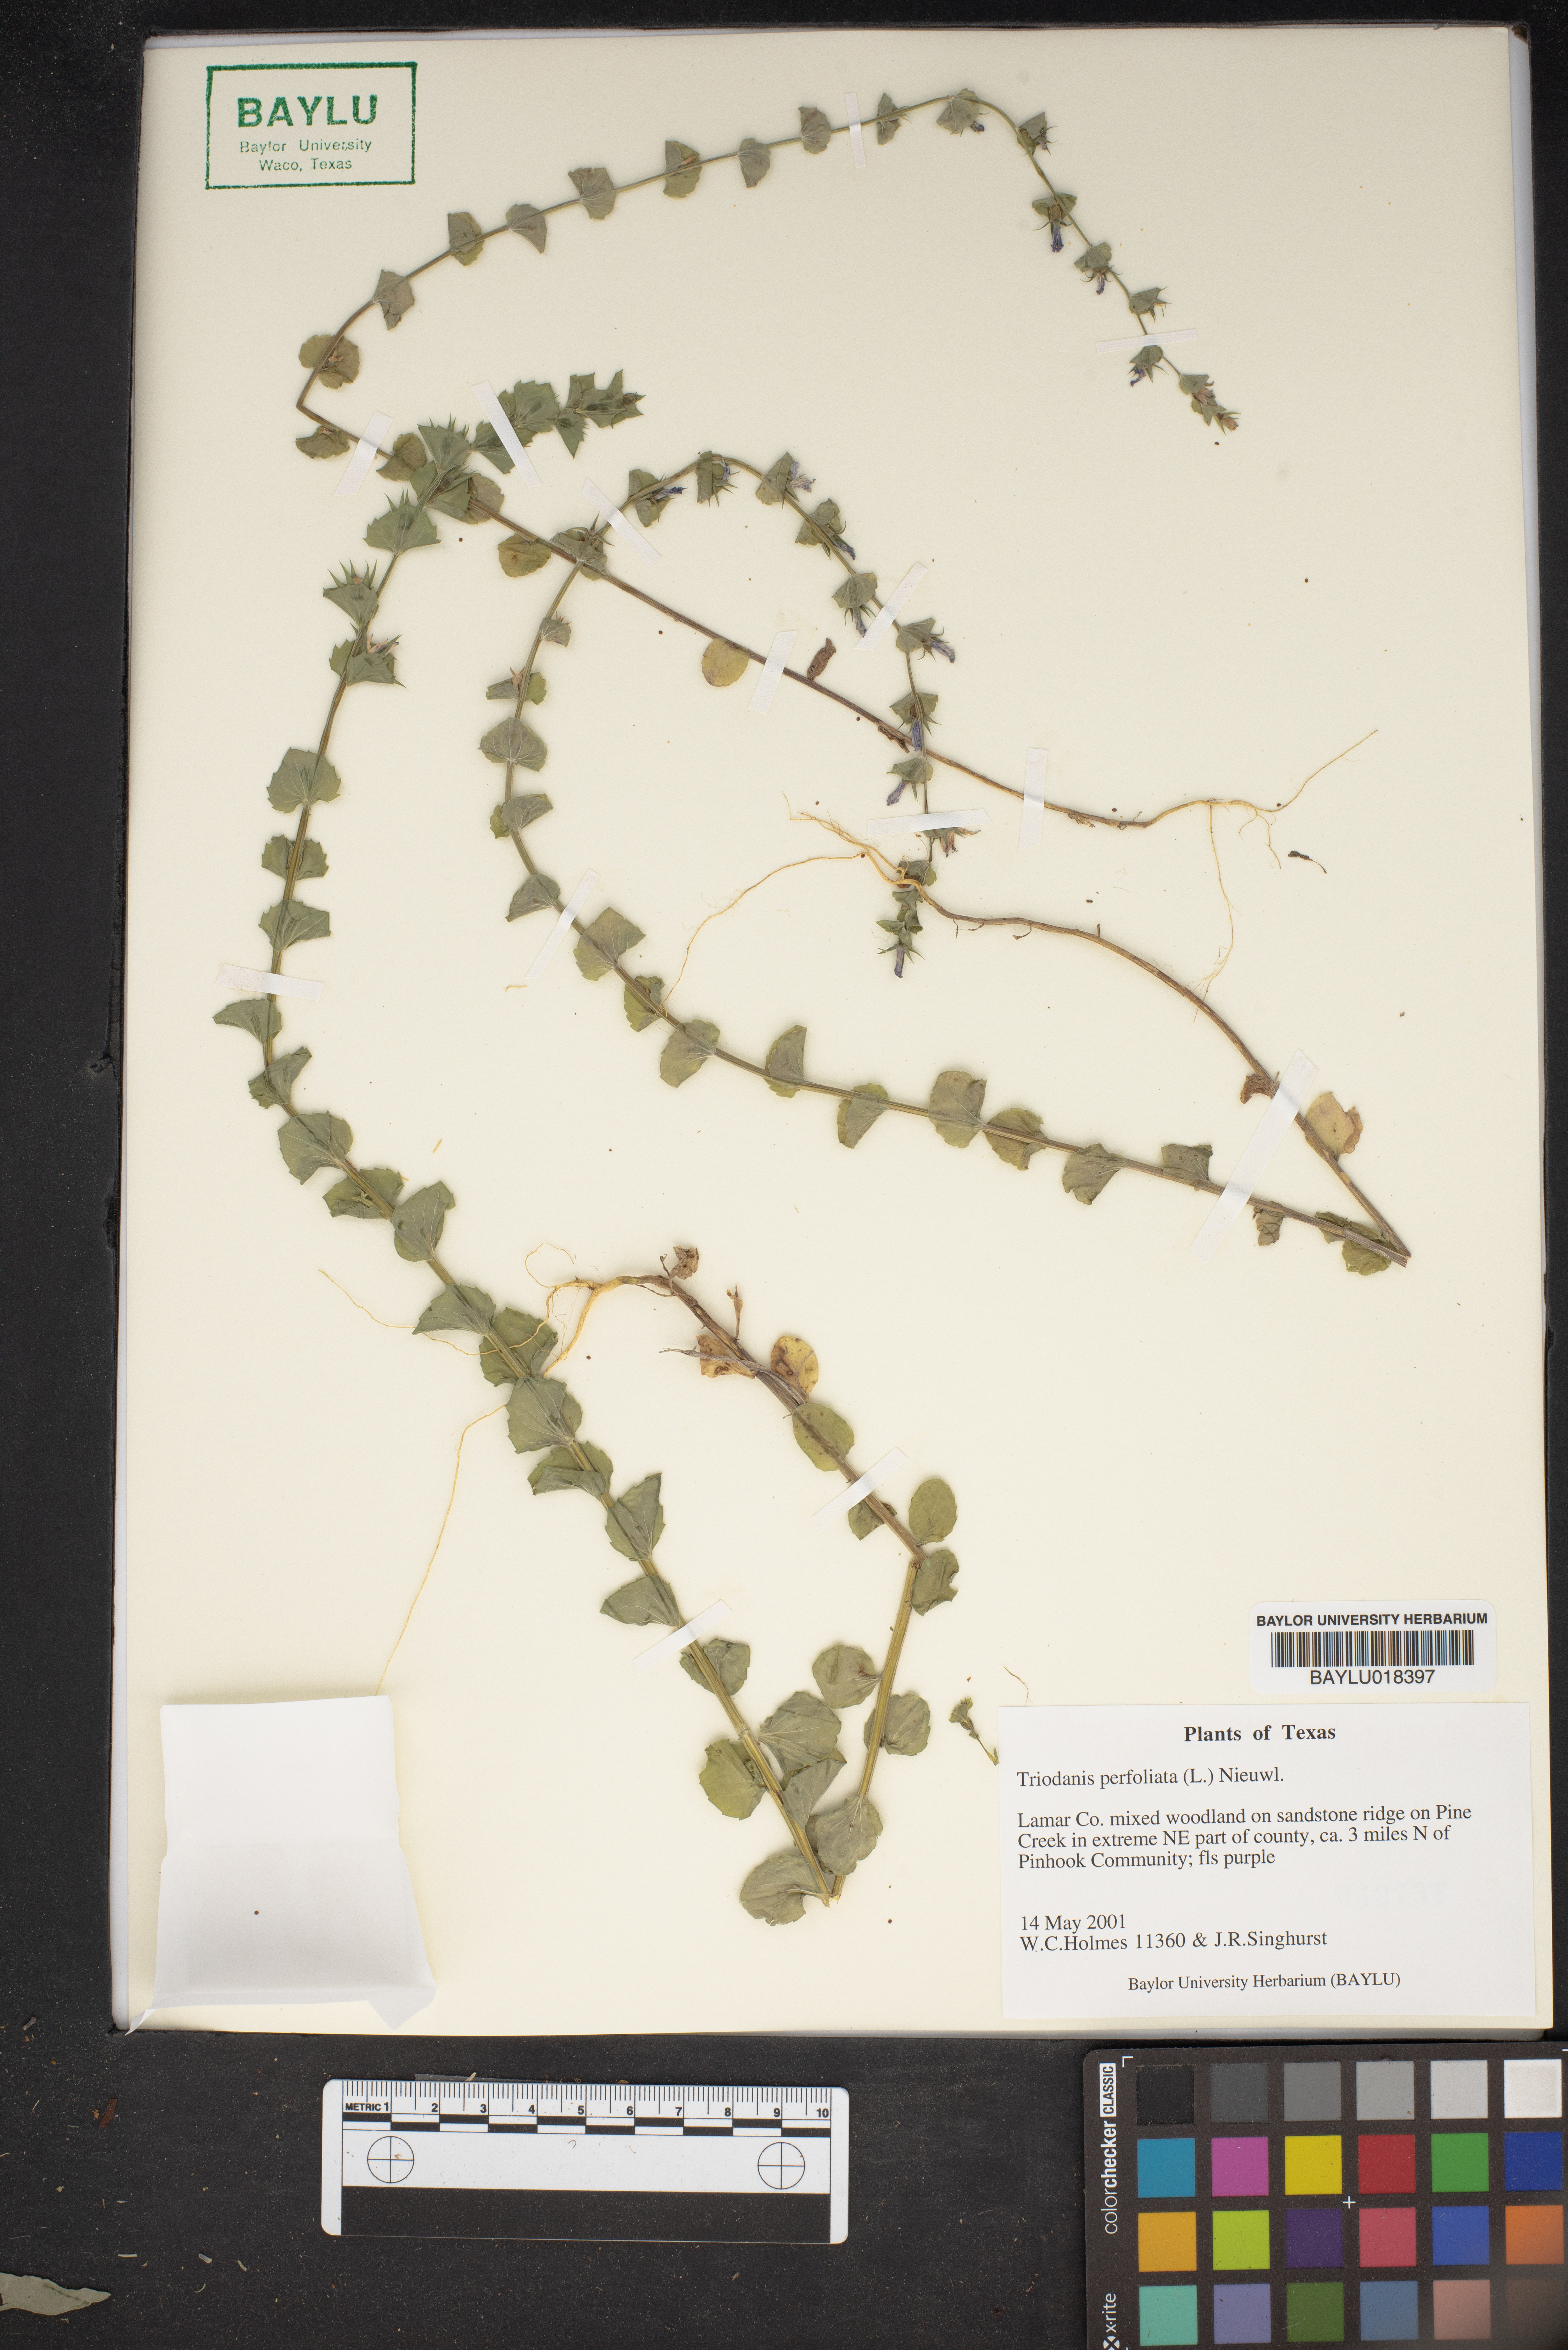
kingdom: Plantae
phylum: Tracheophyta
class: Magnoliopsida
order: Asterales
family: Campanulaceae
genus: Triodanis
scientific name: Triodanis perfoliata
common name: Clasping venus' looking-glass
